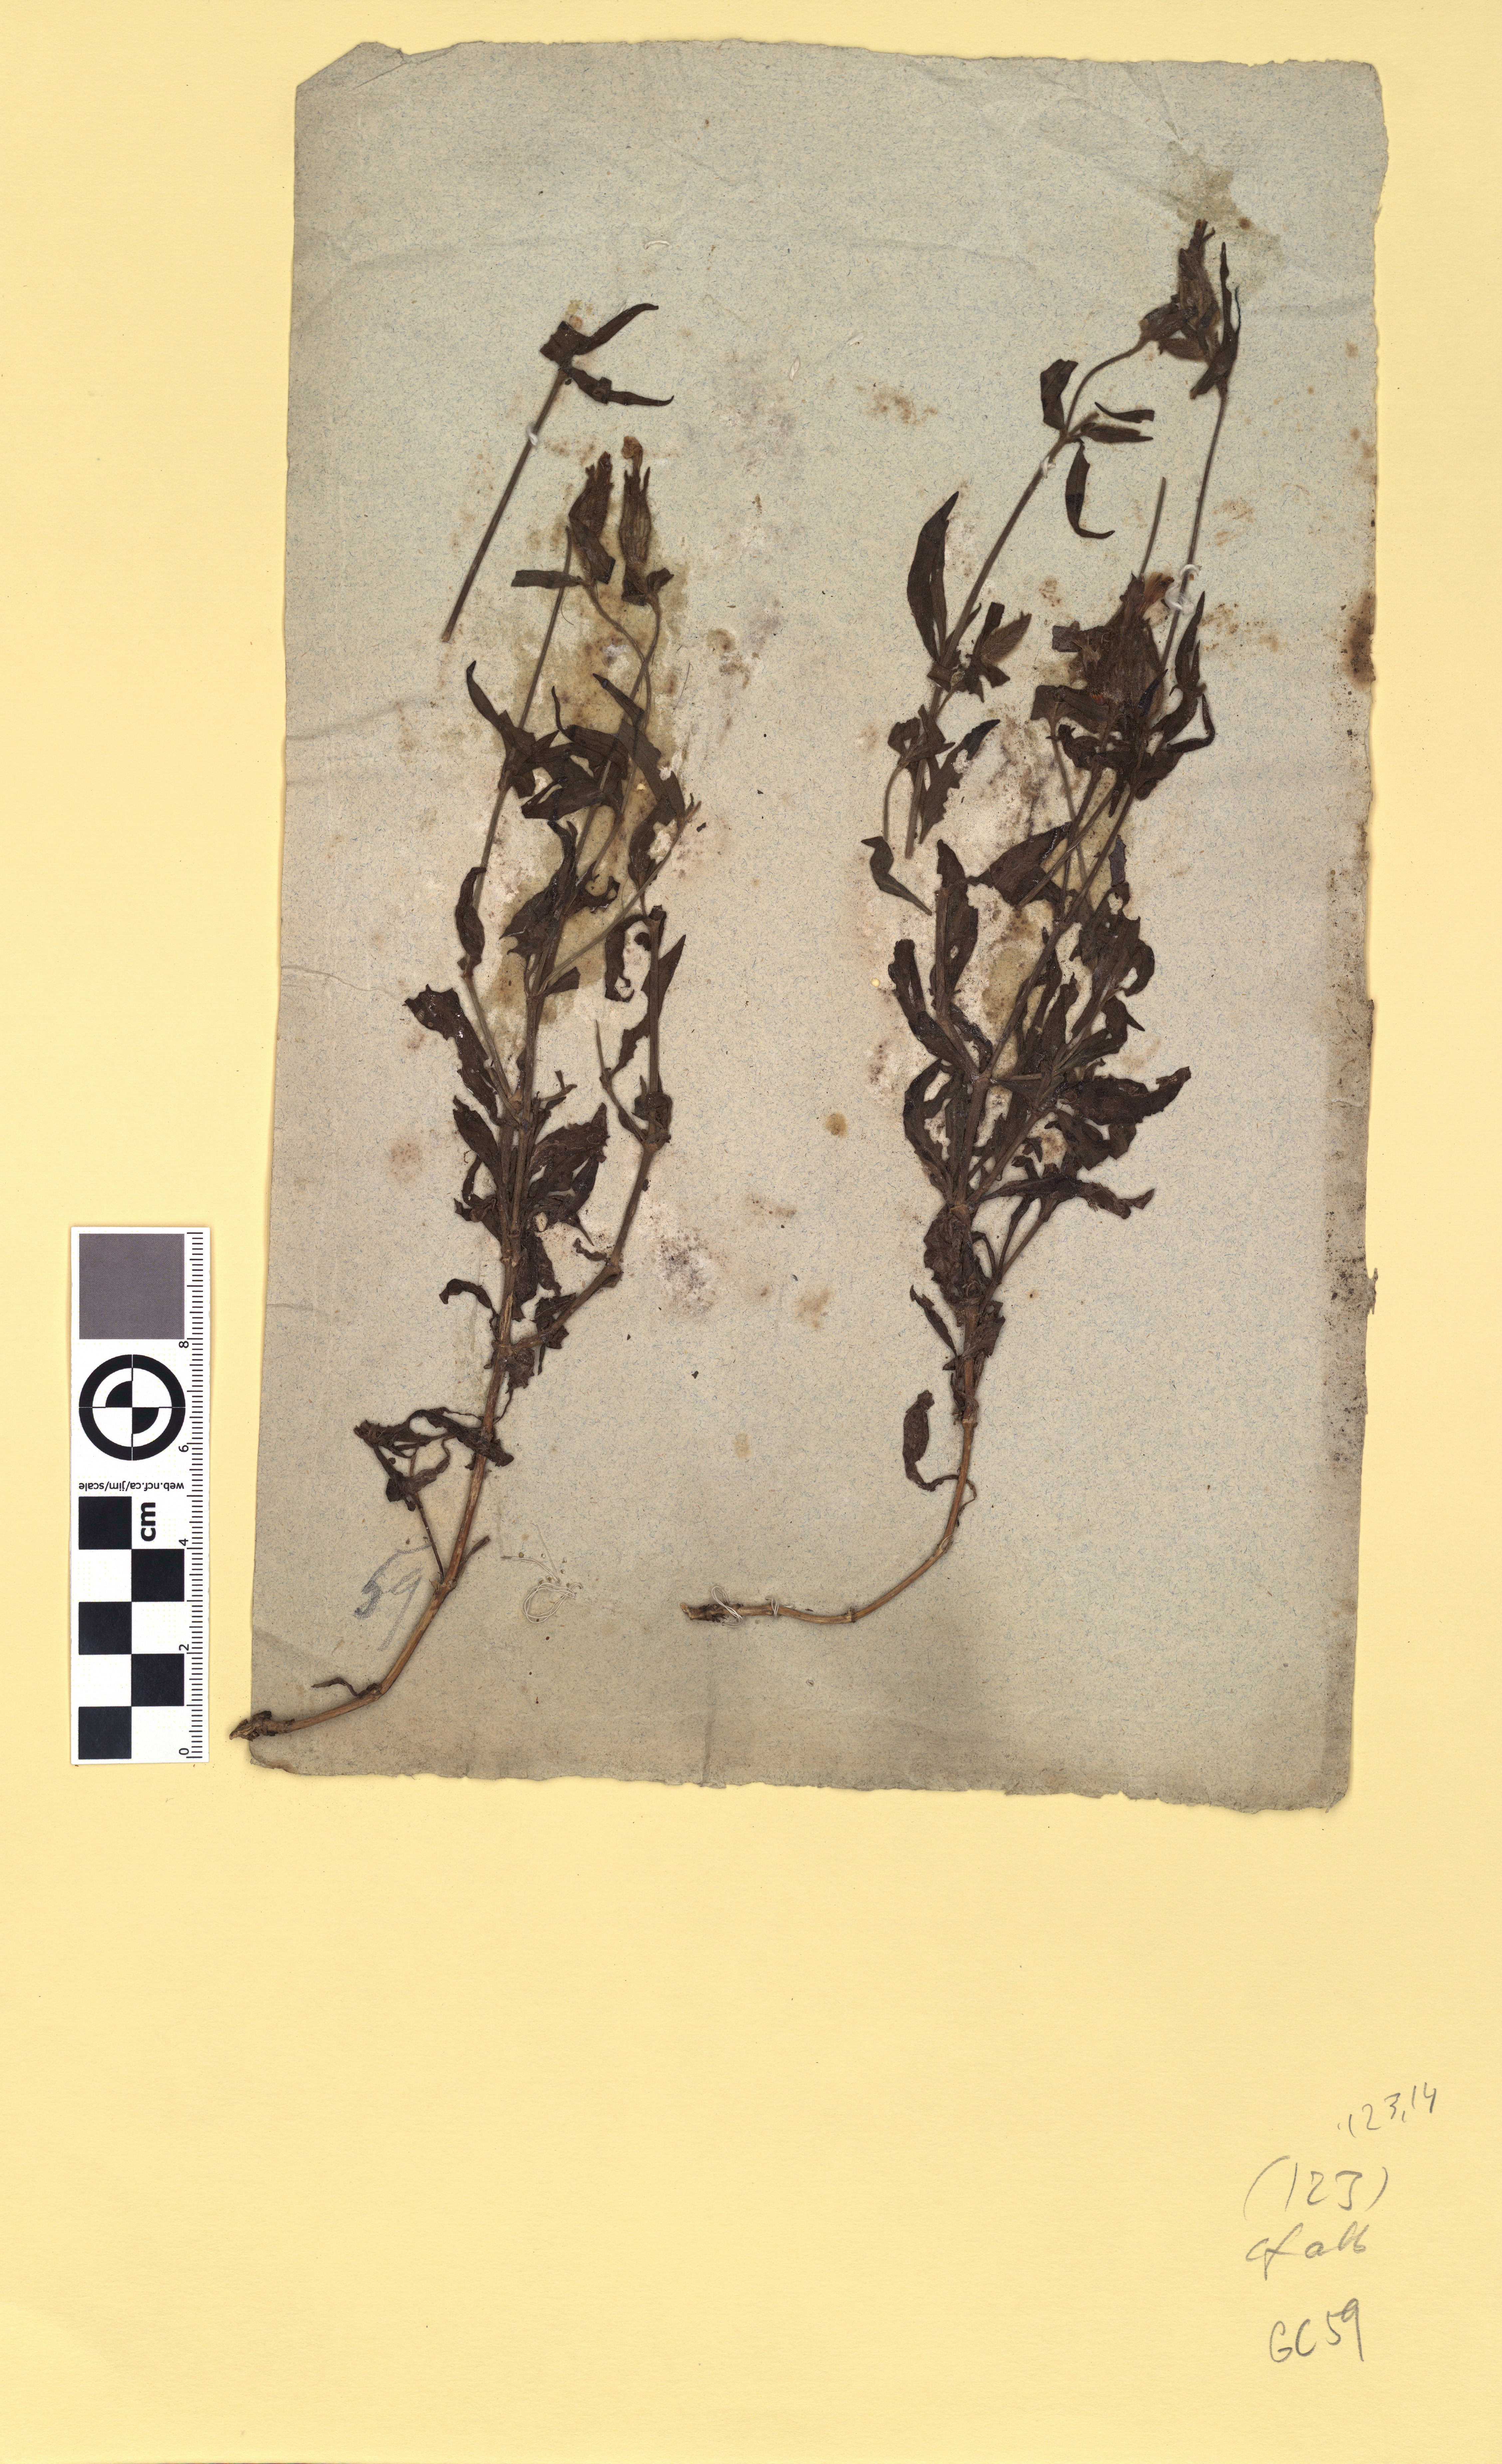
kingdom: Plantae
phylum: Tracheophyta
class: Magnoliopsida
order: Caryophyllales
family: Caryophyllaceae
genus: Silene
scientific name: Silene latifolia
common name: White campion
